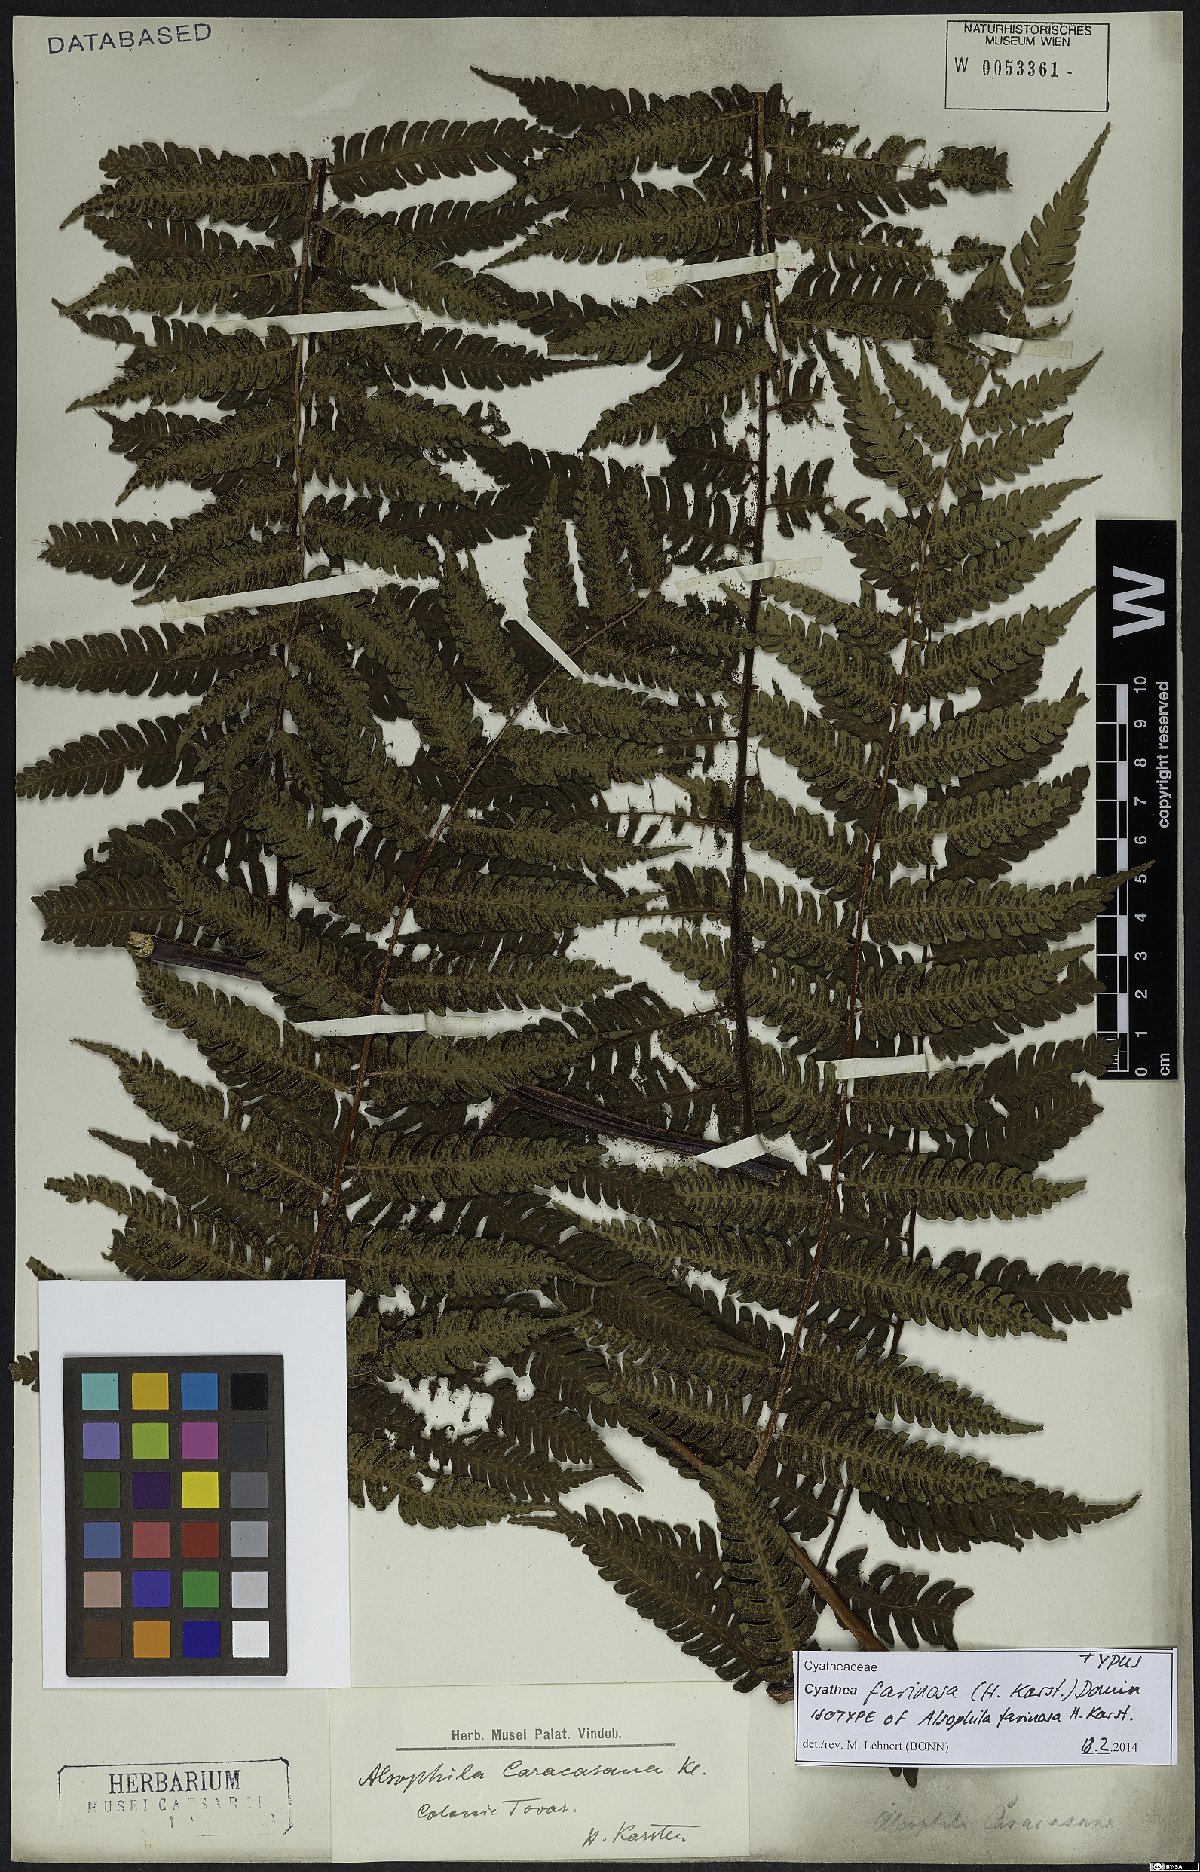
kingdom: Plantae
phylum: Tracheophyta
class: Polypodiopsida
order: Cyatheales
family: Cyatheaceae
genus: Cyathea
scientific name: Cyathea gibbosa
